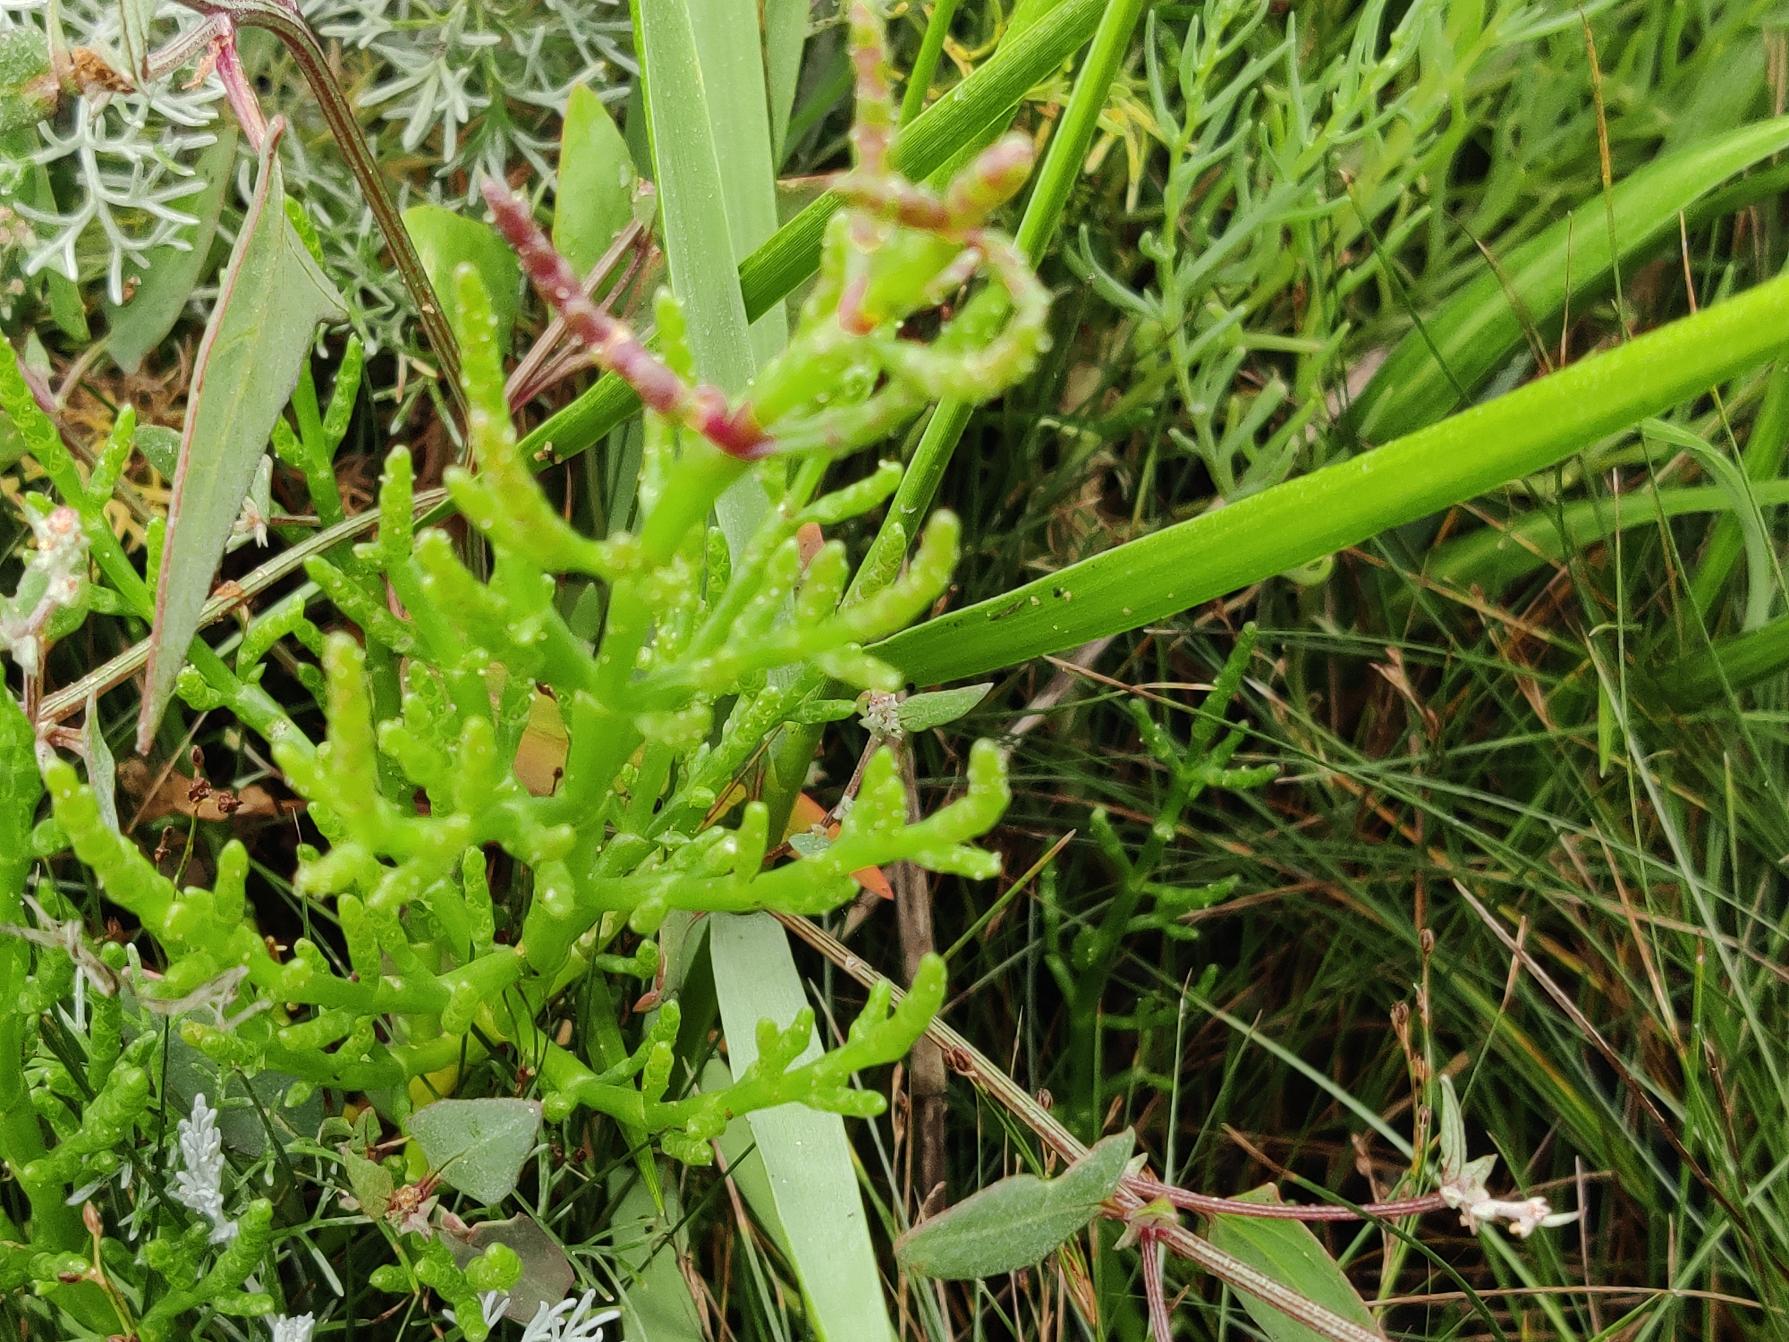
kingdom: Plantae
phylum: Tracheophyta
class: Magnoliopsida
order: Caryophyllales
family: Amaranthaceae
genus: Salicornia
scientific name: Salicornia europaea
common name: Almindelig salturt
